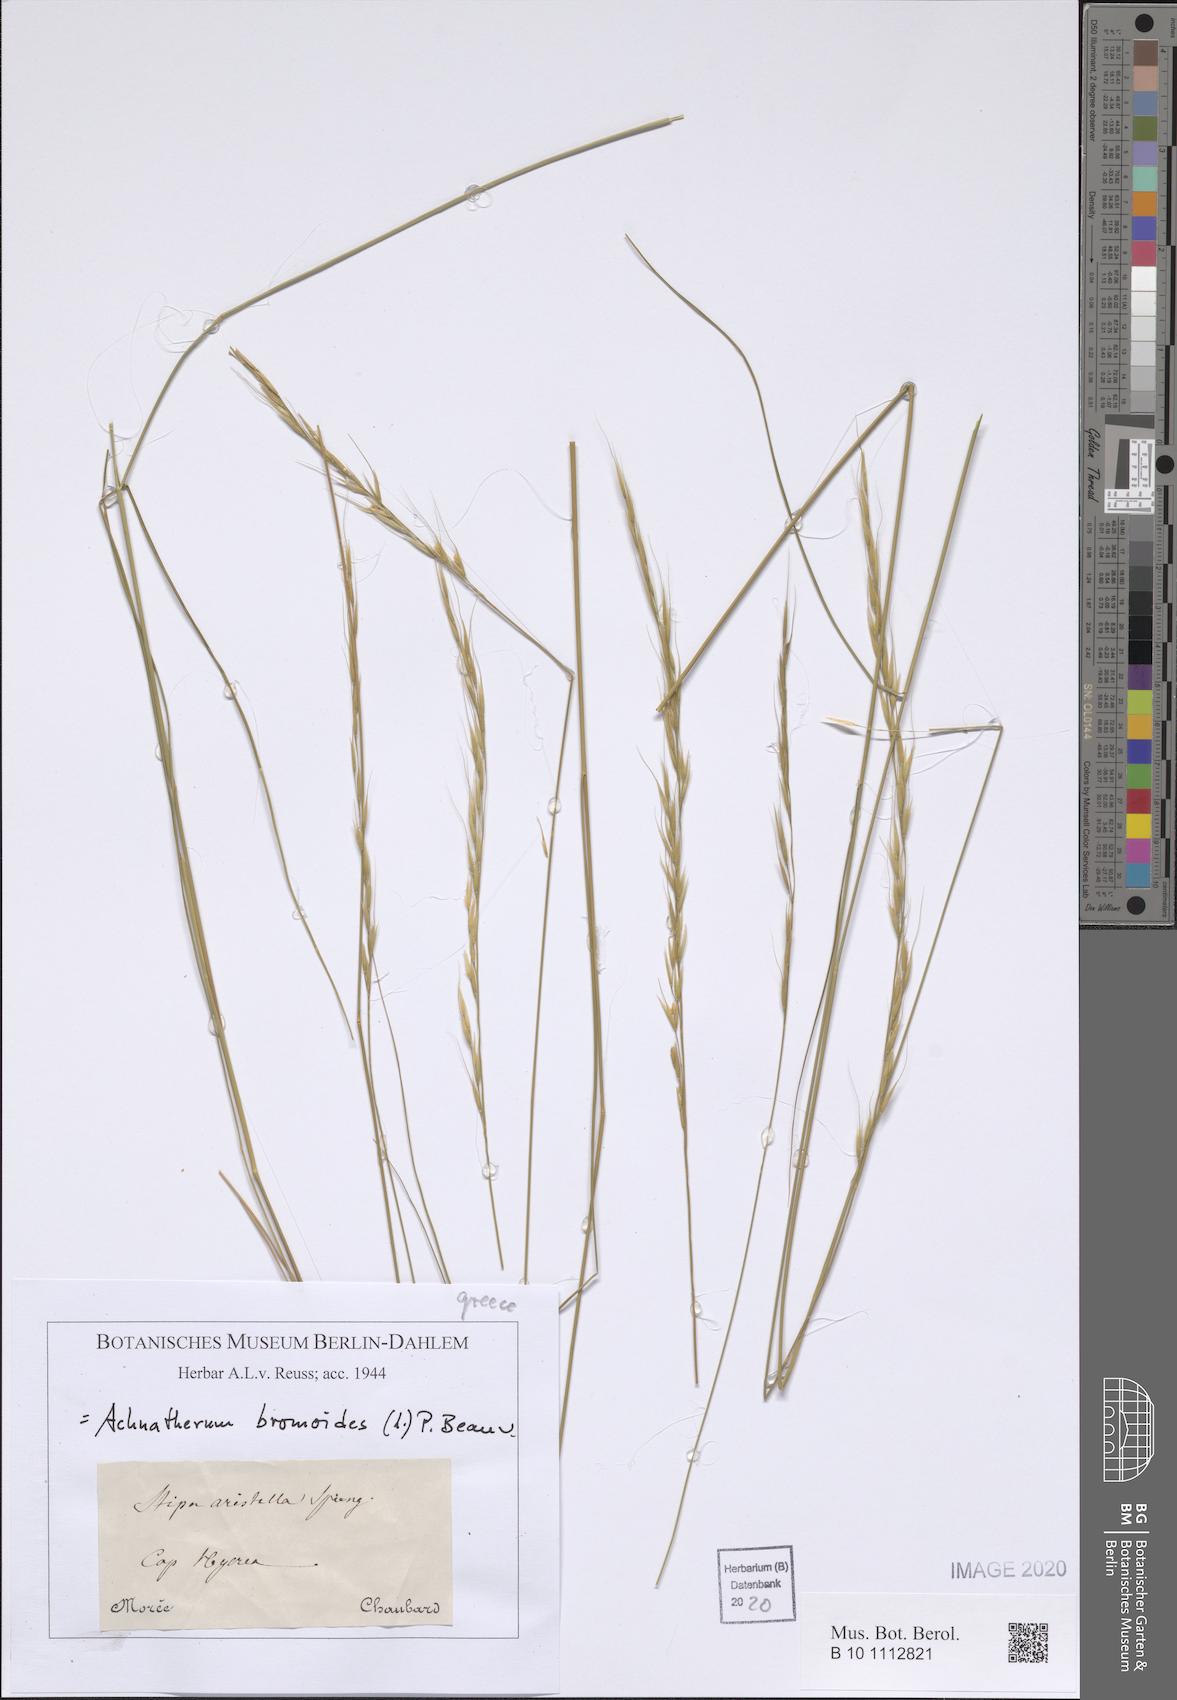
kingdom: Plantae
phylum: Tracheophyta
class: Liliopsida
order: Poales
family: Poaceae
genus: Achnatherum
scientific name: Achnatherum bromoides
